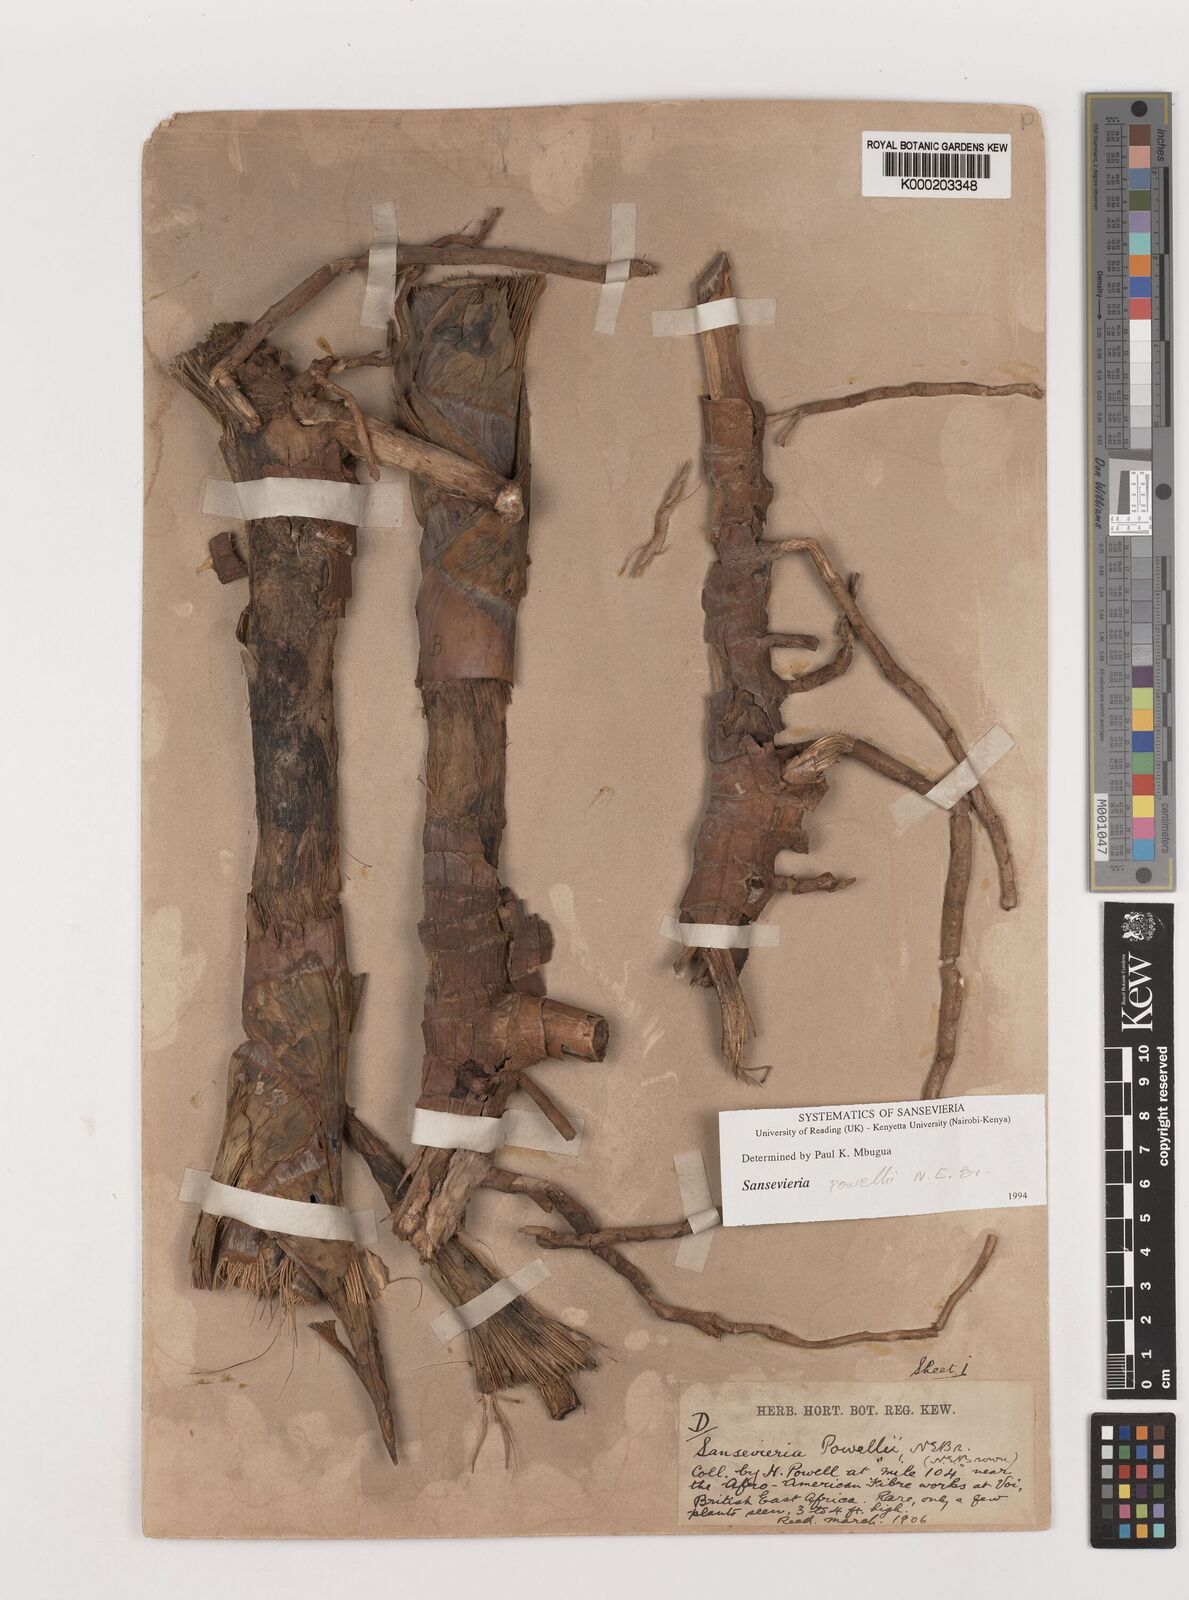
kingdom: Plantae
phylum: Tracheophyta
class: Liliopsida
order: Asparagales
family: Asparagaceae
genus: Dracaena
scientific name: Dracaena powellii
